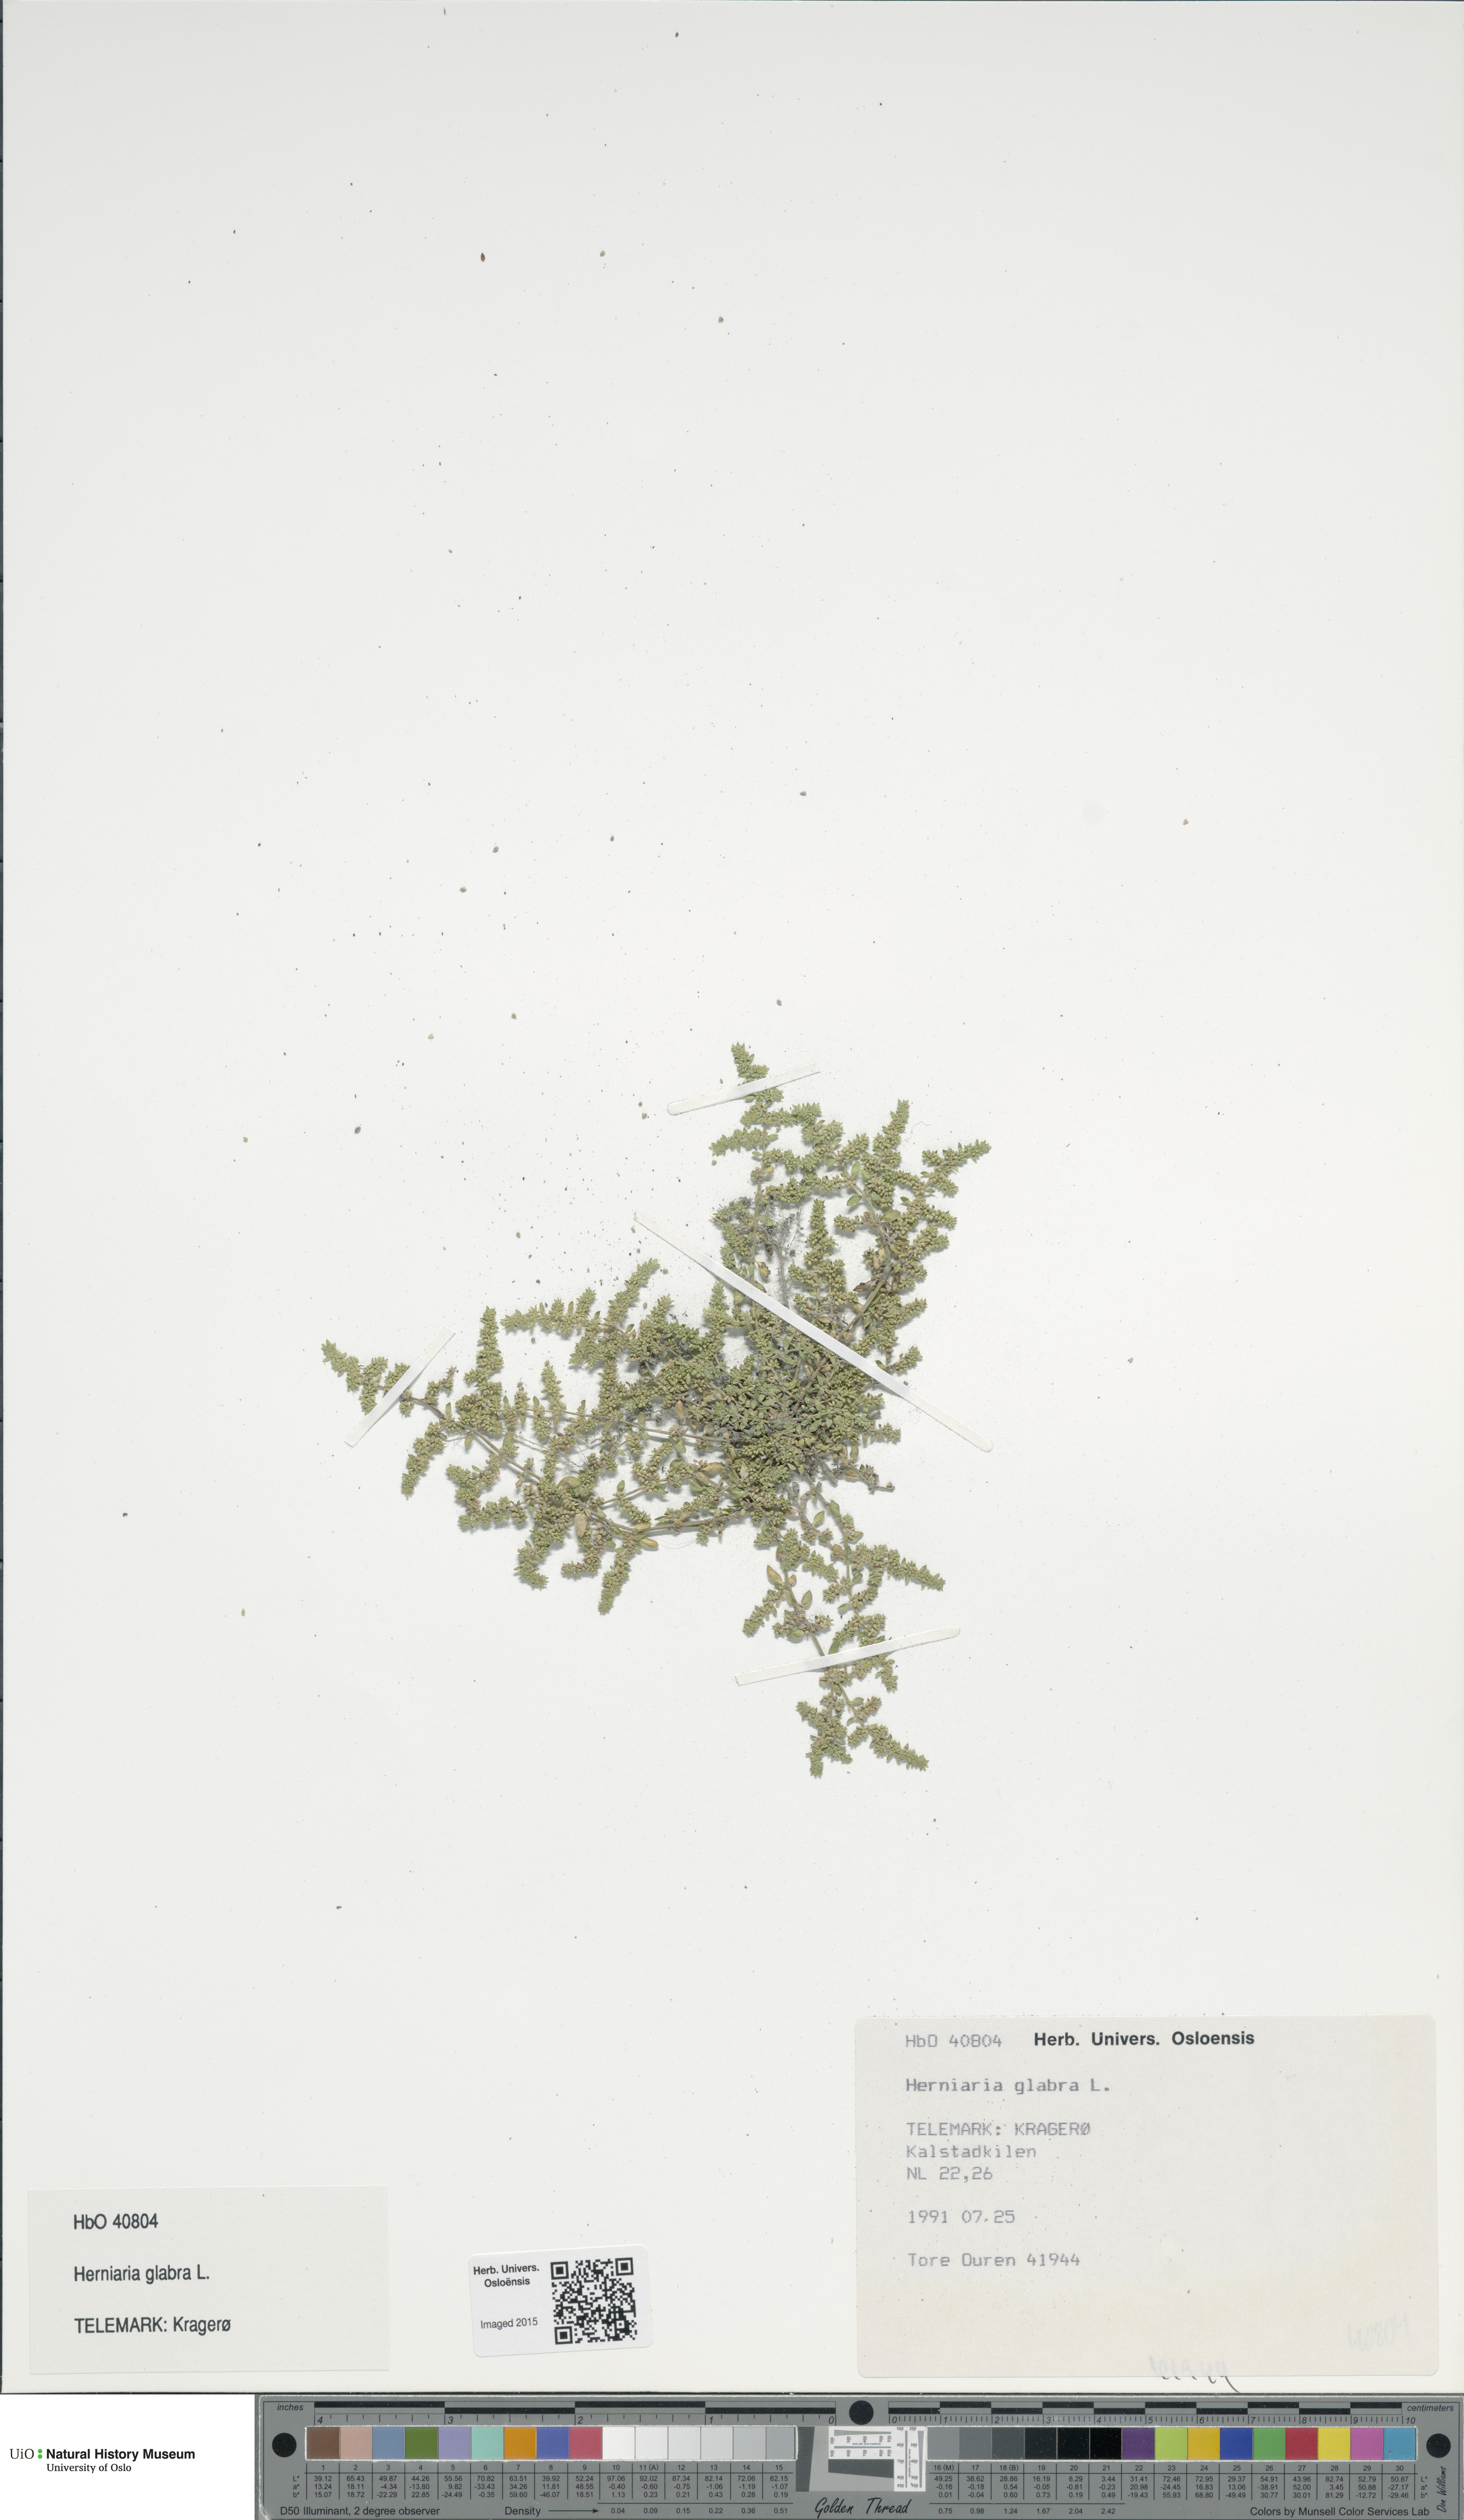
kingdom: Plantae
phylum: Tracheophyta
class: Magnoliopsida
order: Caryophyllales
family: Caryophyllaceae
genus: Herniaria
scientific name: Herniaria glabra
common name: Smooth rupturewort
